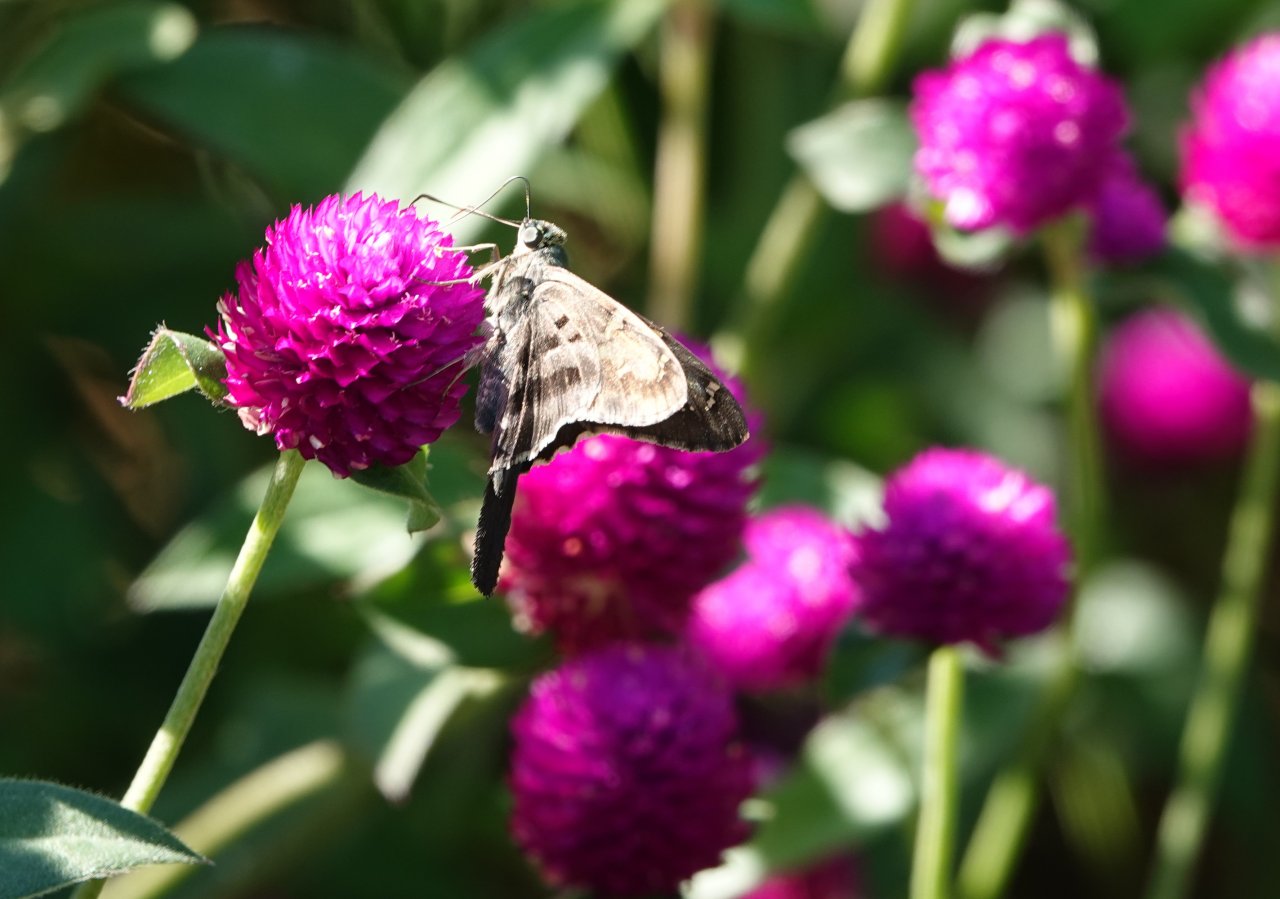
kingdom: Animalia
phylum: Arthropoda
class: Insecta
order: Lepidoptera
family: Hesperiidae
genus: Urbanus
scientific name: Urbanus proteus
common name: Long-tailed Skipper
